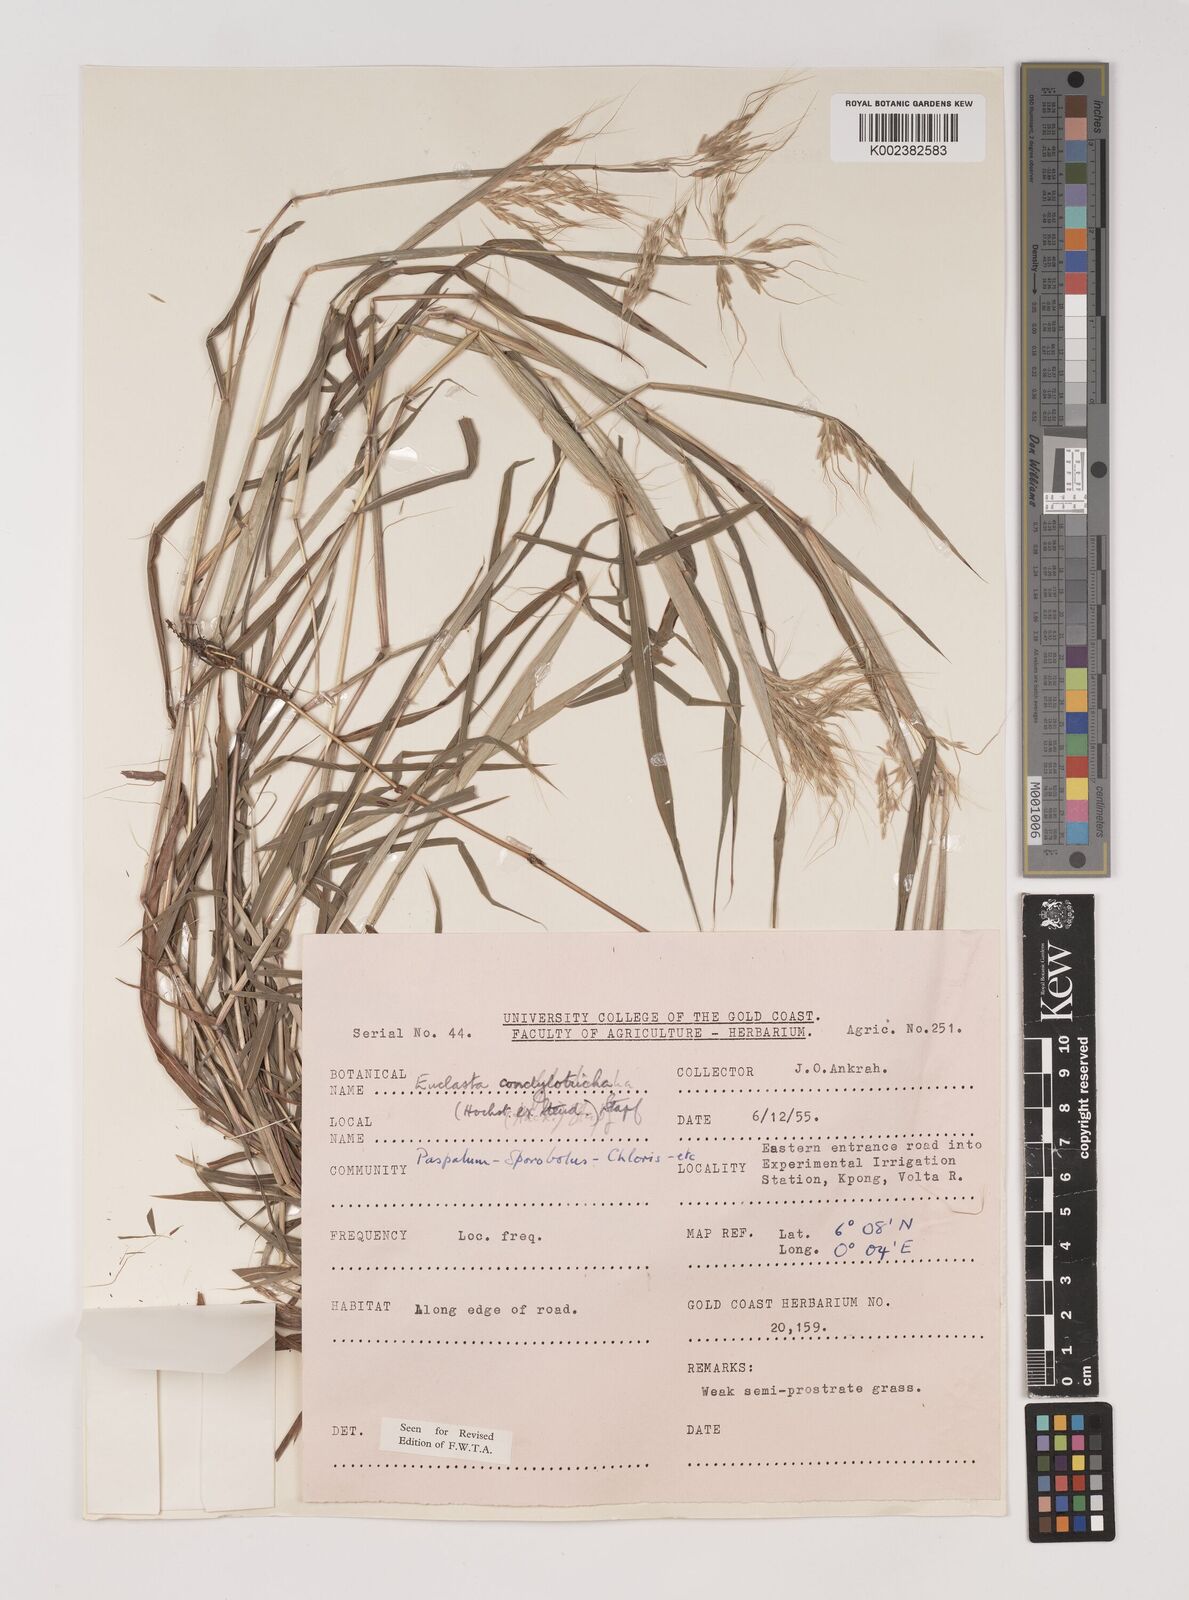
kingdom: Plantae
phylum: Tracheophyta
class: Liliopsida
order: Poales
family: Poaceae
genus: Euclasta
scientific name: Euclasta condylotricha
